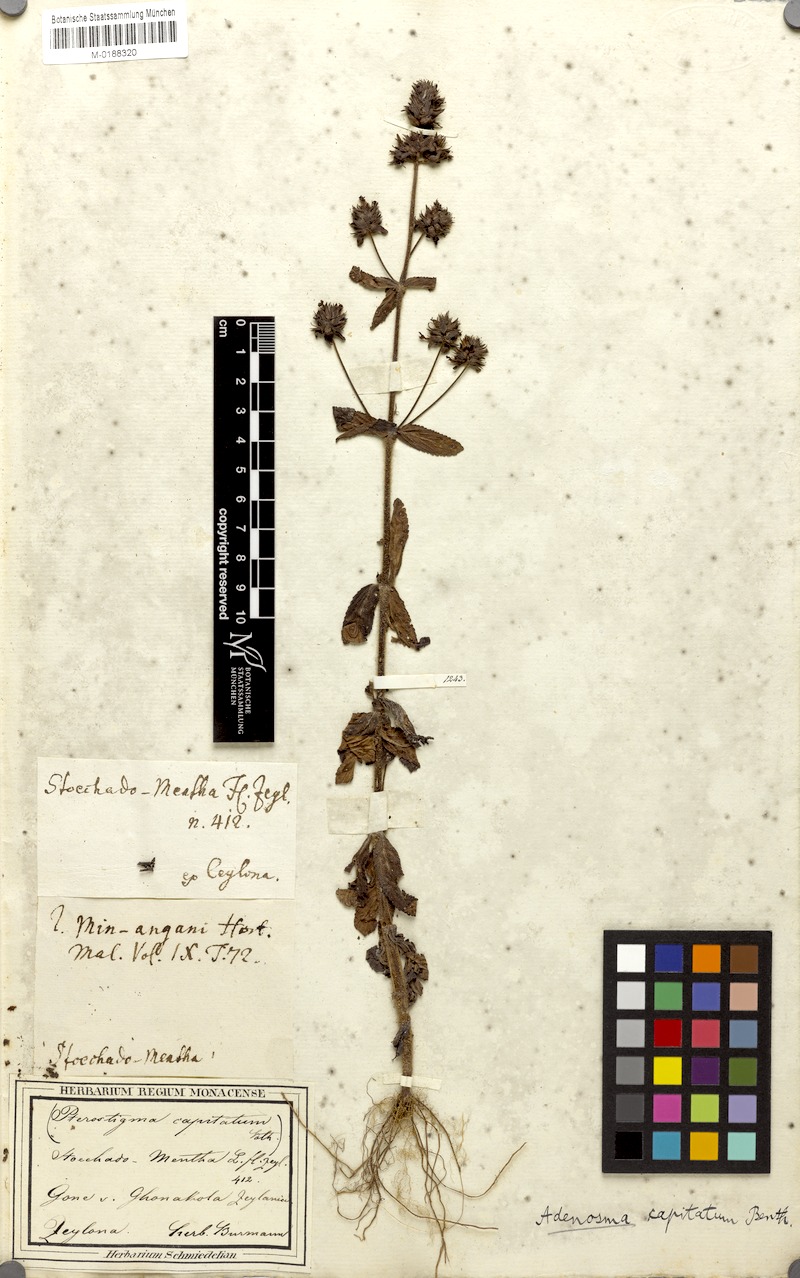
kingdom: Plantae
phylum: Tracheophyta
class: Magnoliopsida
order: Lamiales
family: Plantaginaceae
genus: Adenosma
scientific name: Adenosma indiana
